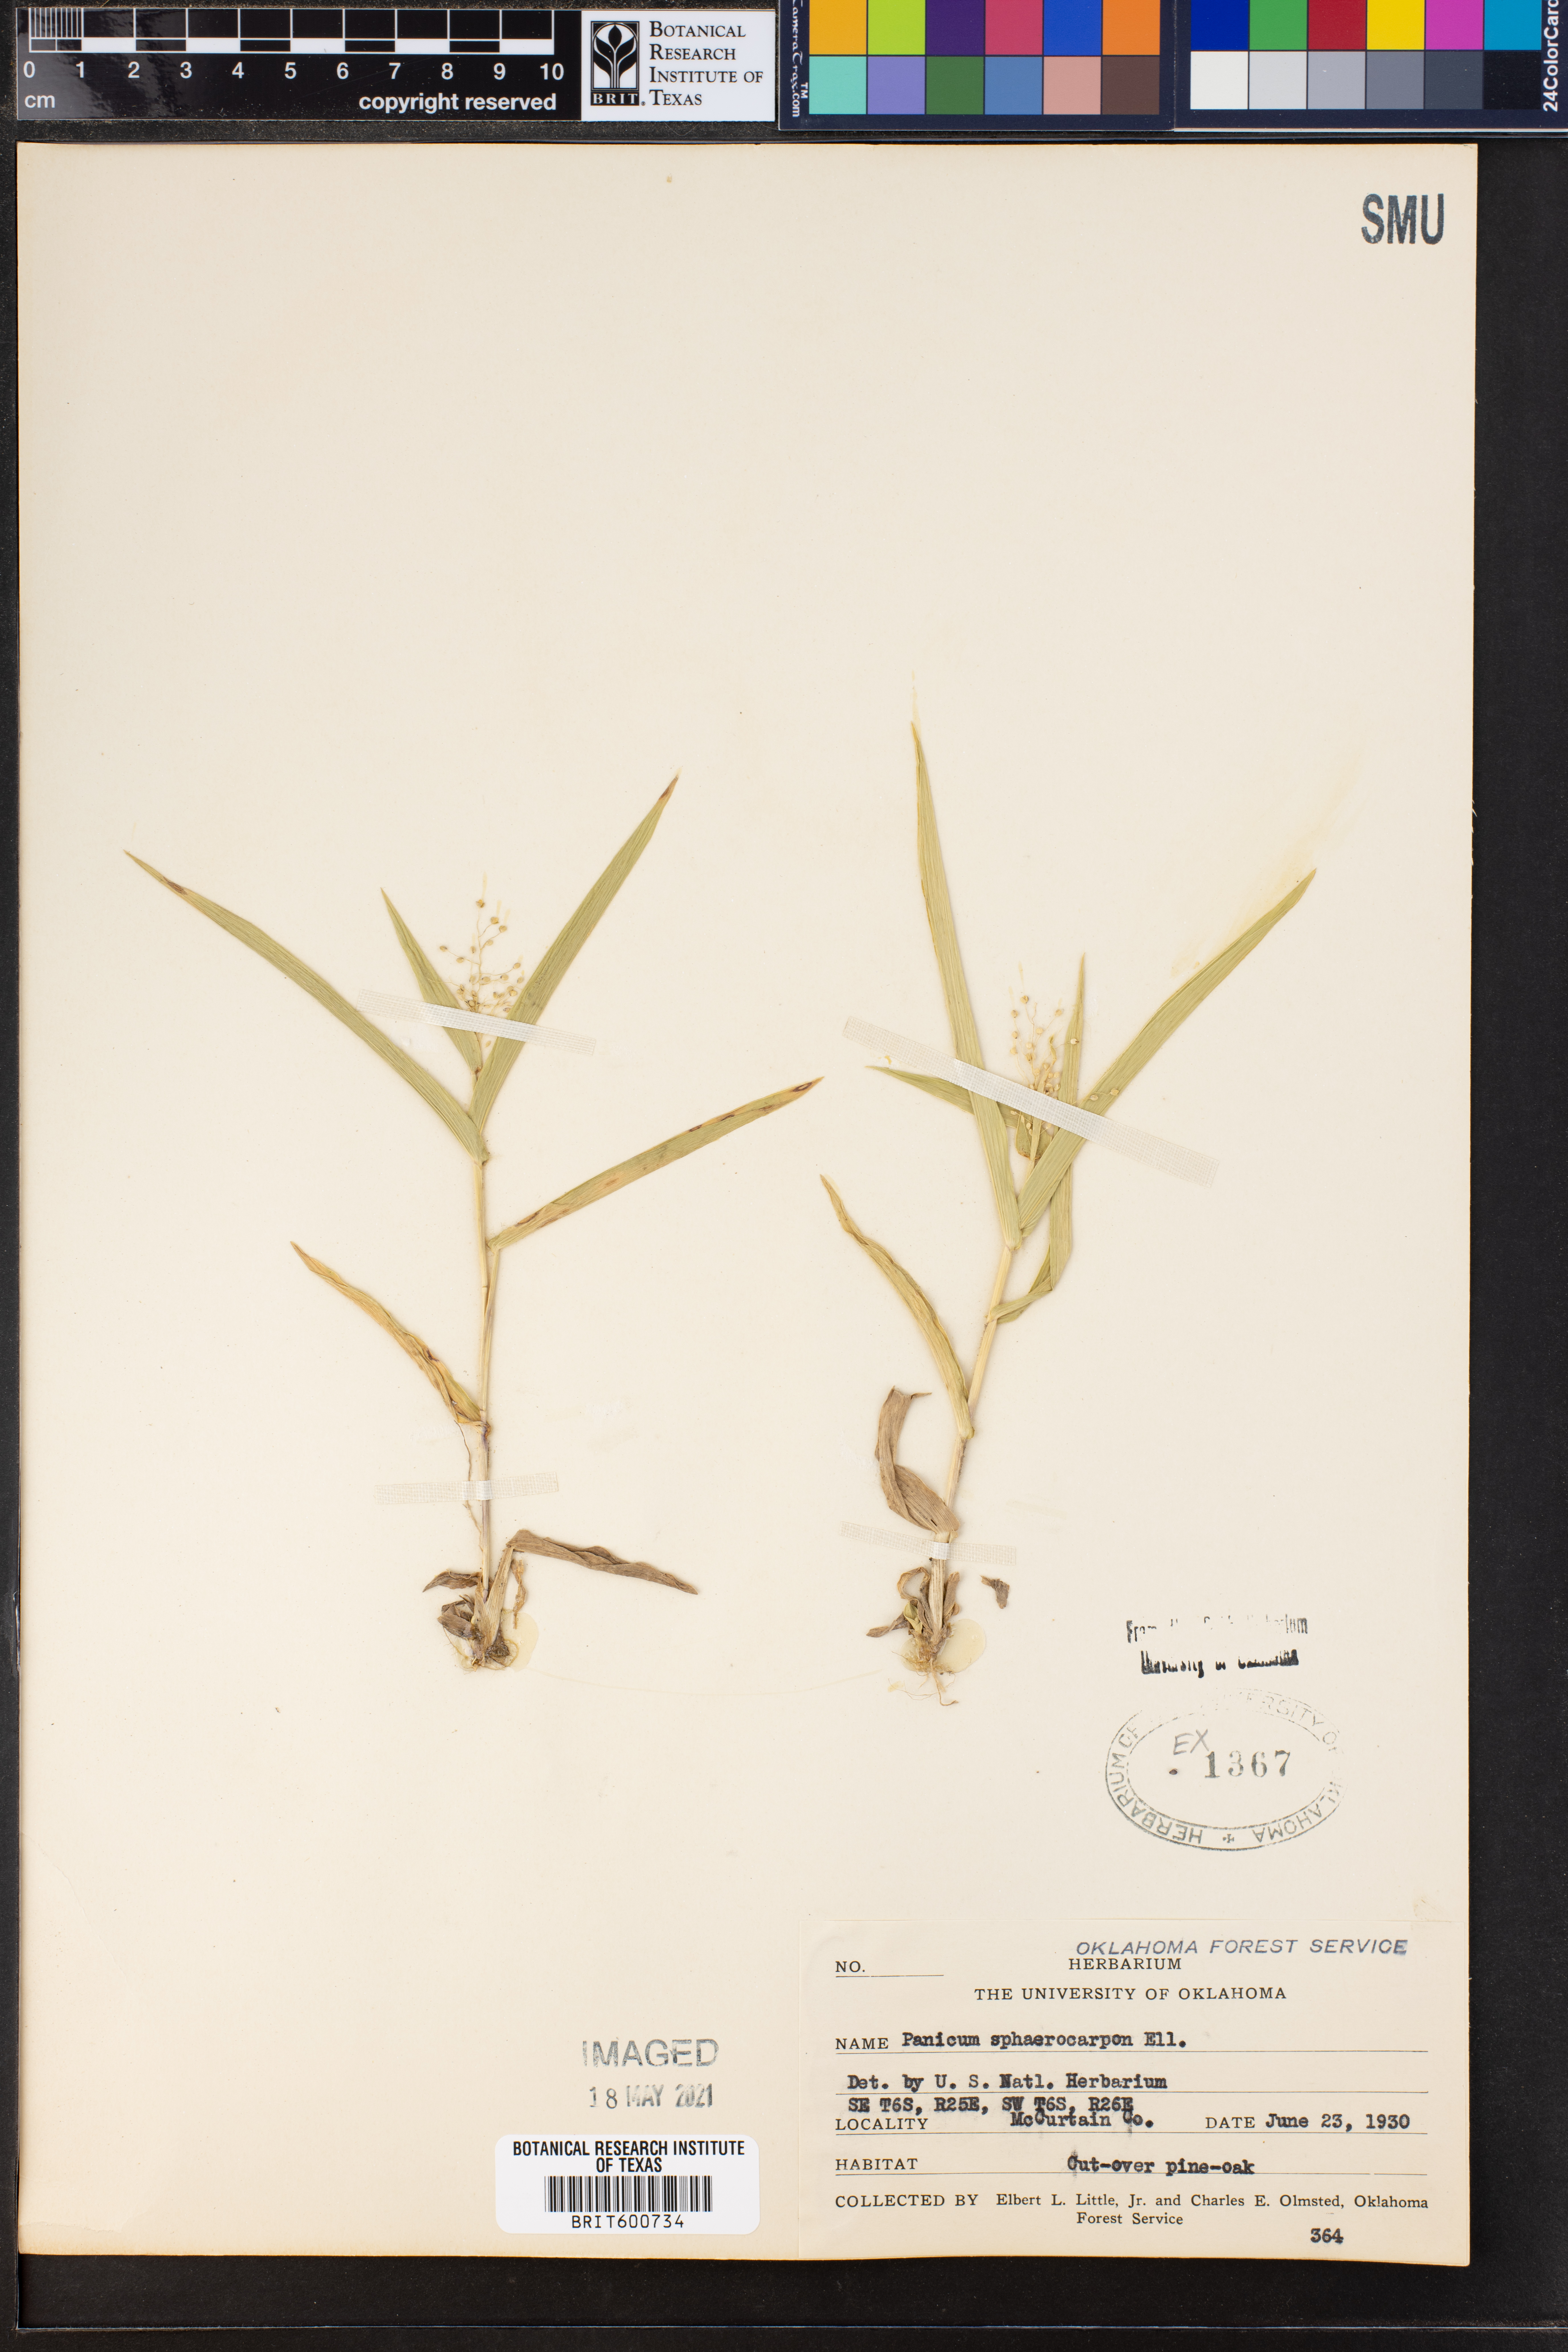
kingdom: Plantae
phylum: Tracheophyta
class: Liliopsida
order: Poales
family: Poaceae
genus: Dichanthelium
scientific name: Dichanthelium sphaerocarpon
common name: Round-fruited panicgrass
